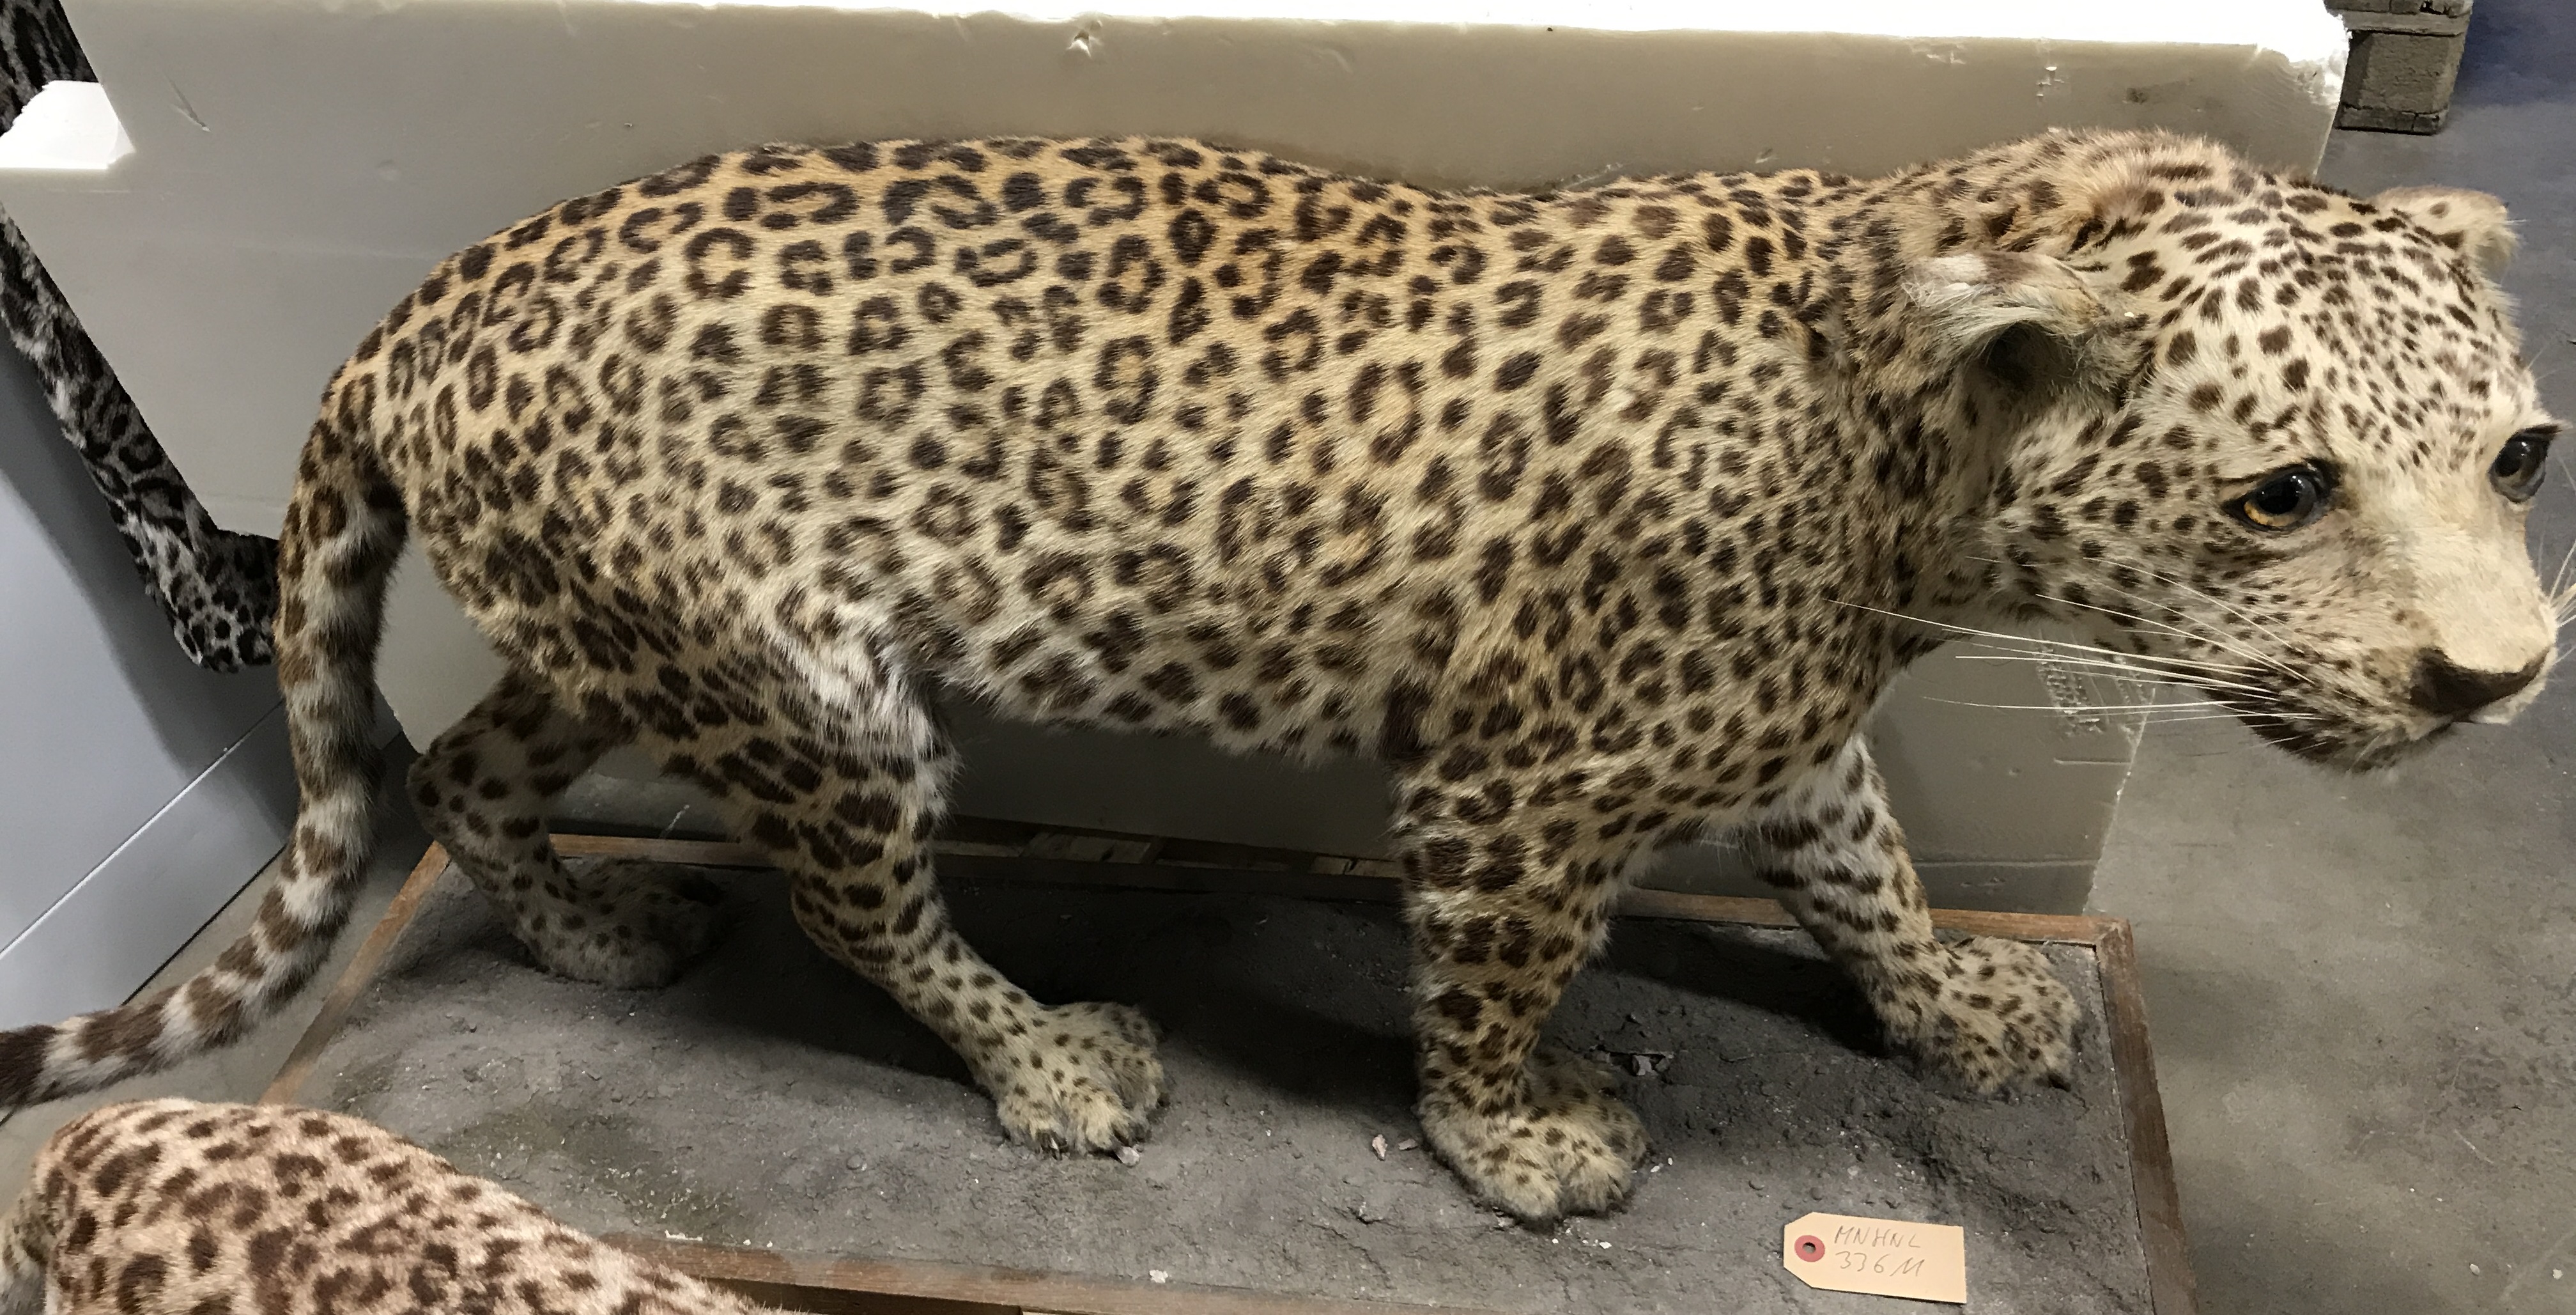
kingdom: Animalia
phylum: Chordata
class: Mammalia
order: Carnivora
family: Felidae
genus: Panthera
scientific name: Panthera pardus
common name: Leopard
